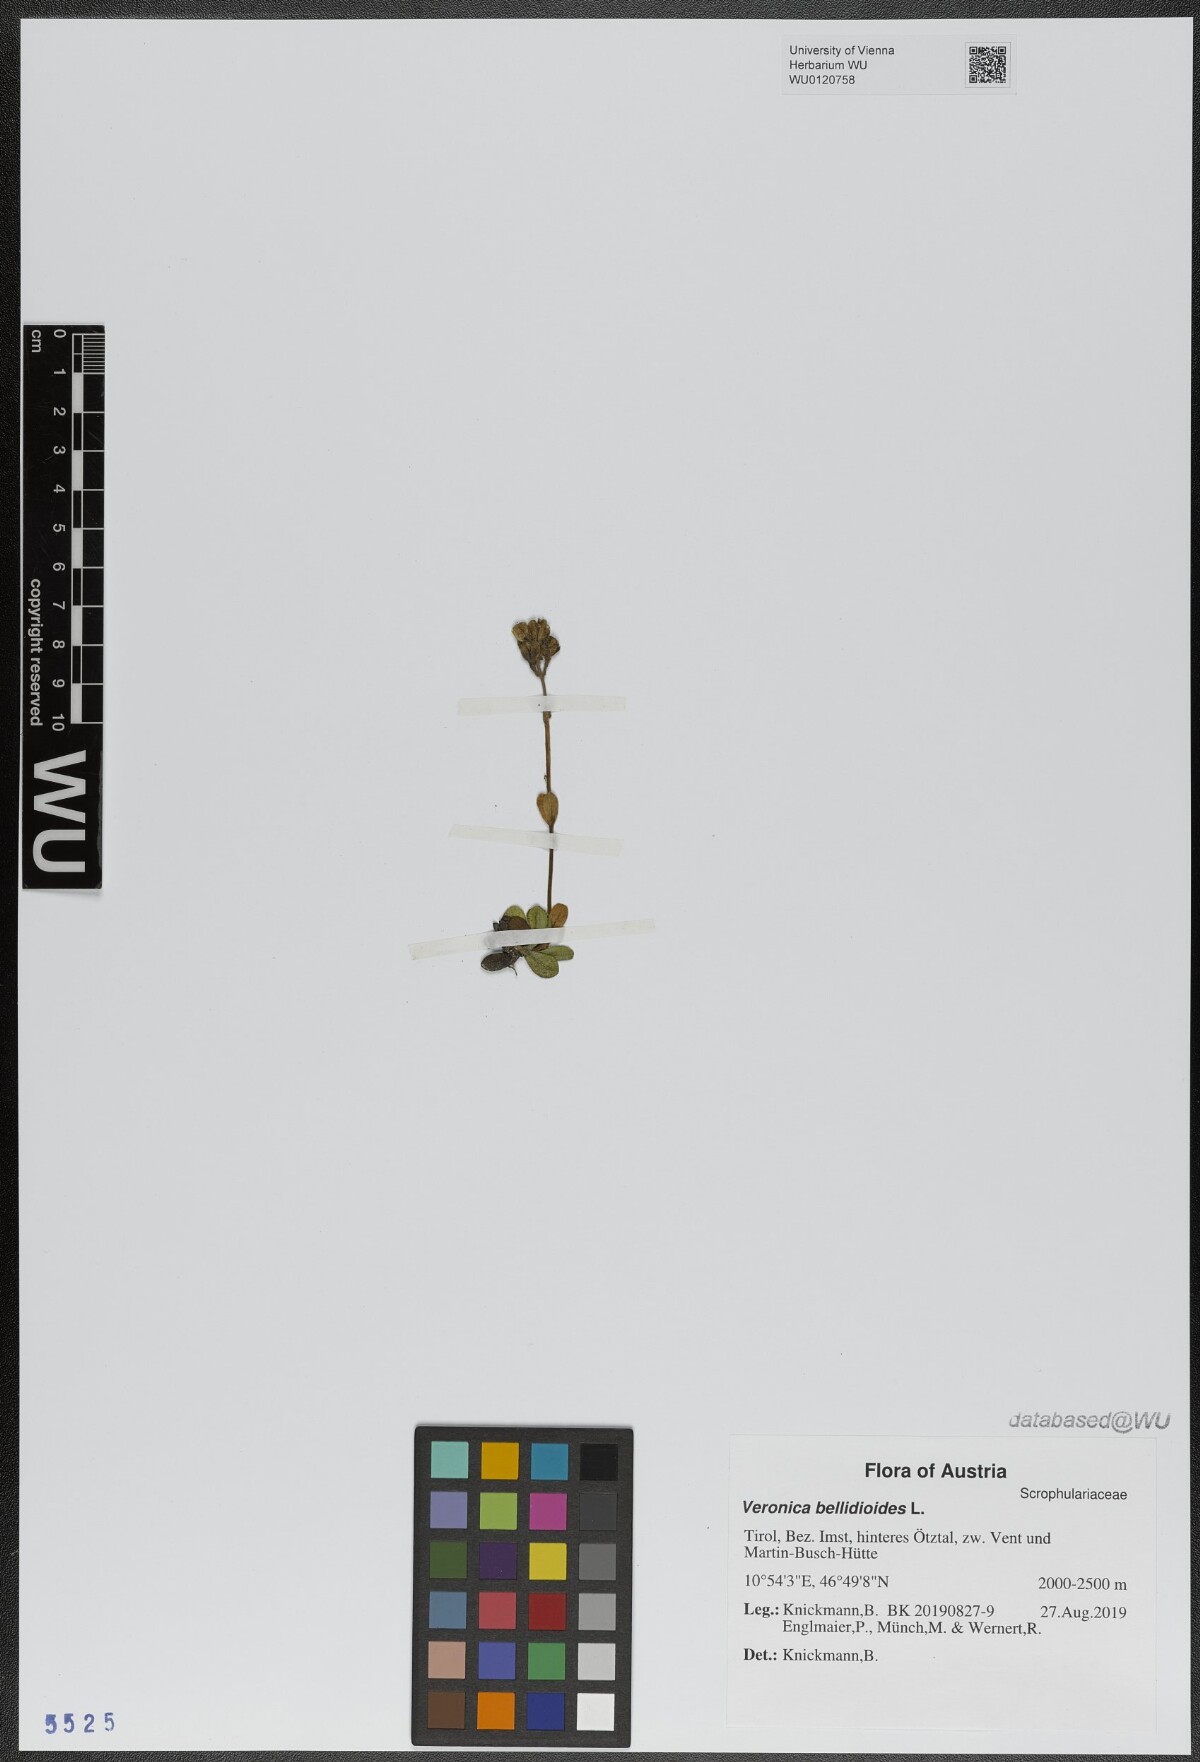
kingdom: Plantae
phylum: Tracheophyta
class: Magnoliopsida
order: Lamiales
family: Plantaginaceae
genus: Veronica
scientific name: Veronica bellidioides
